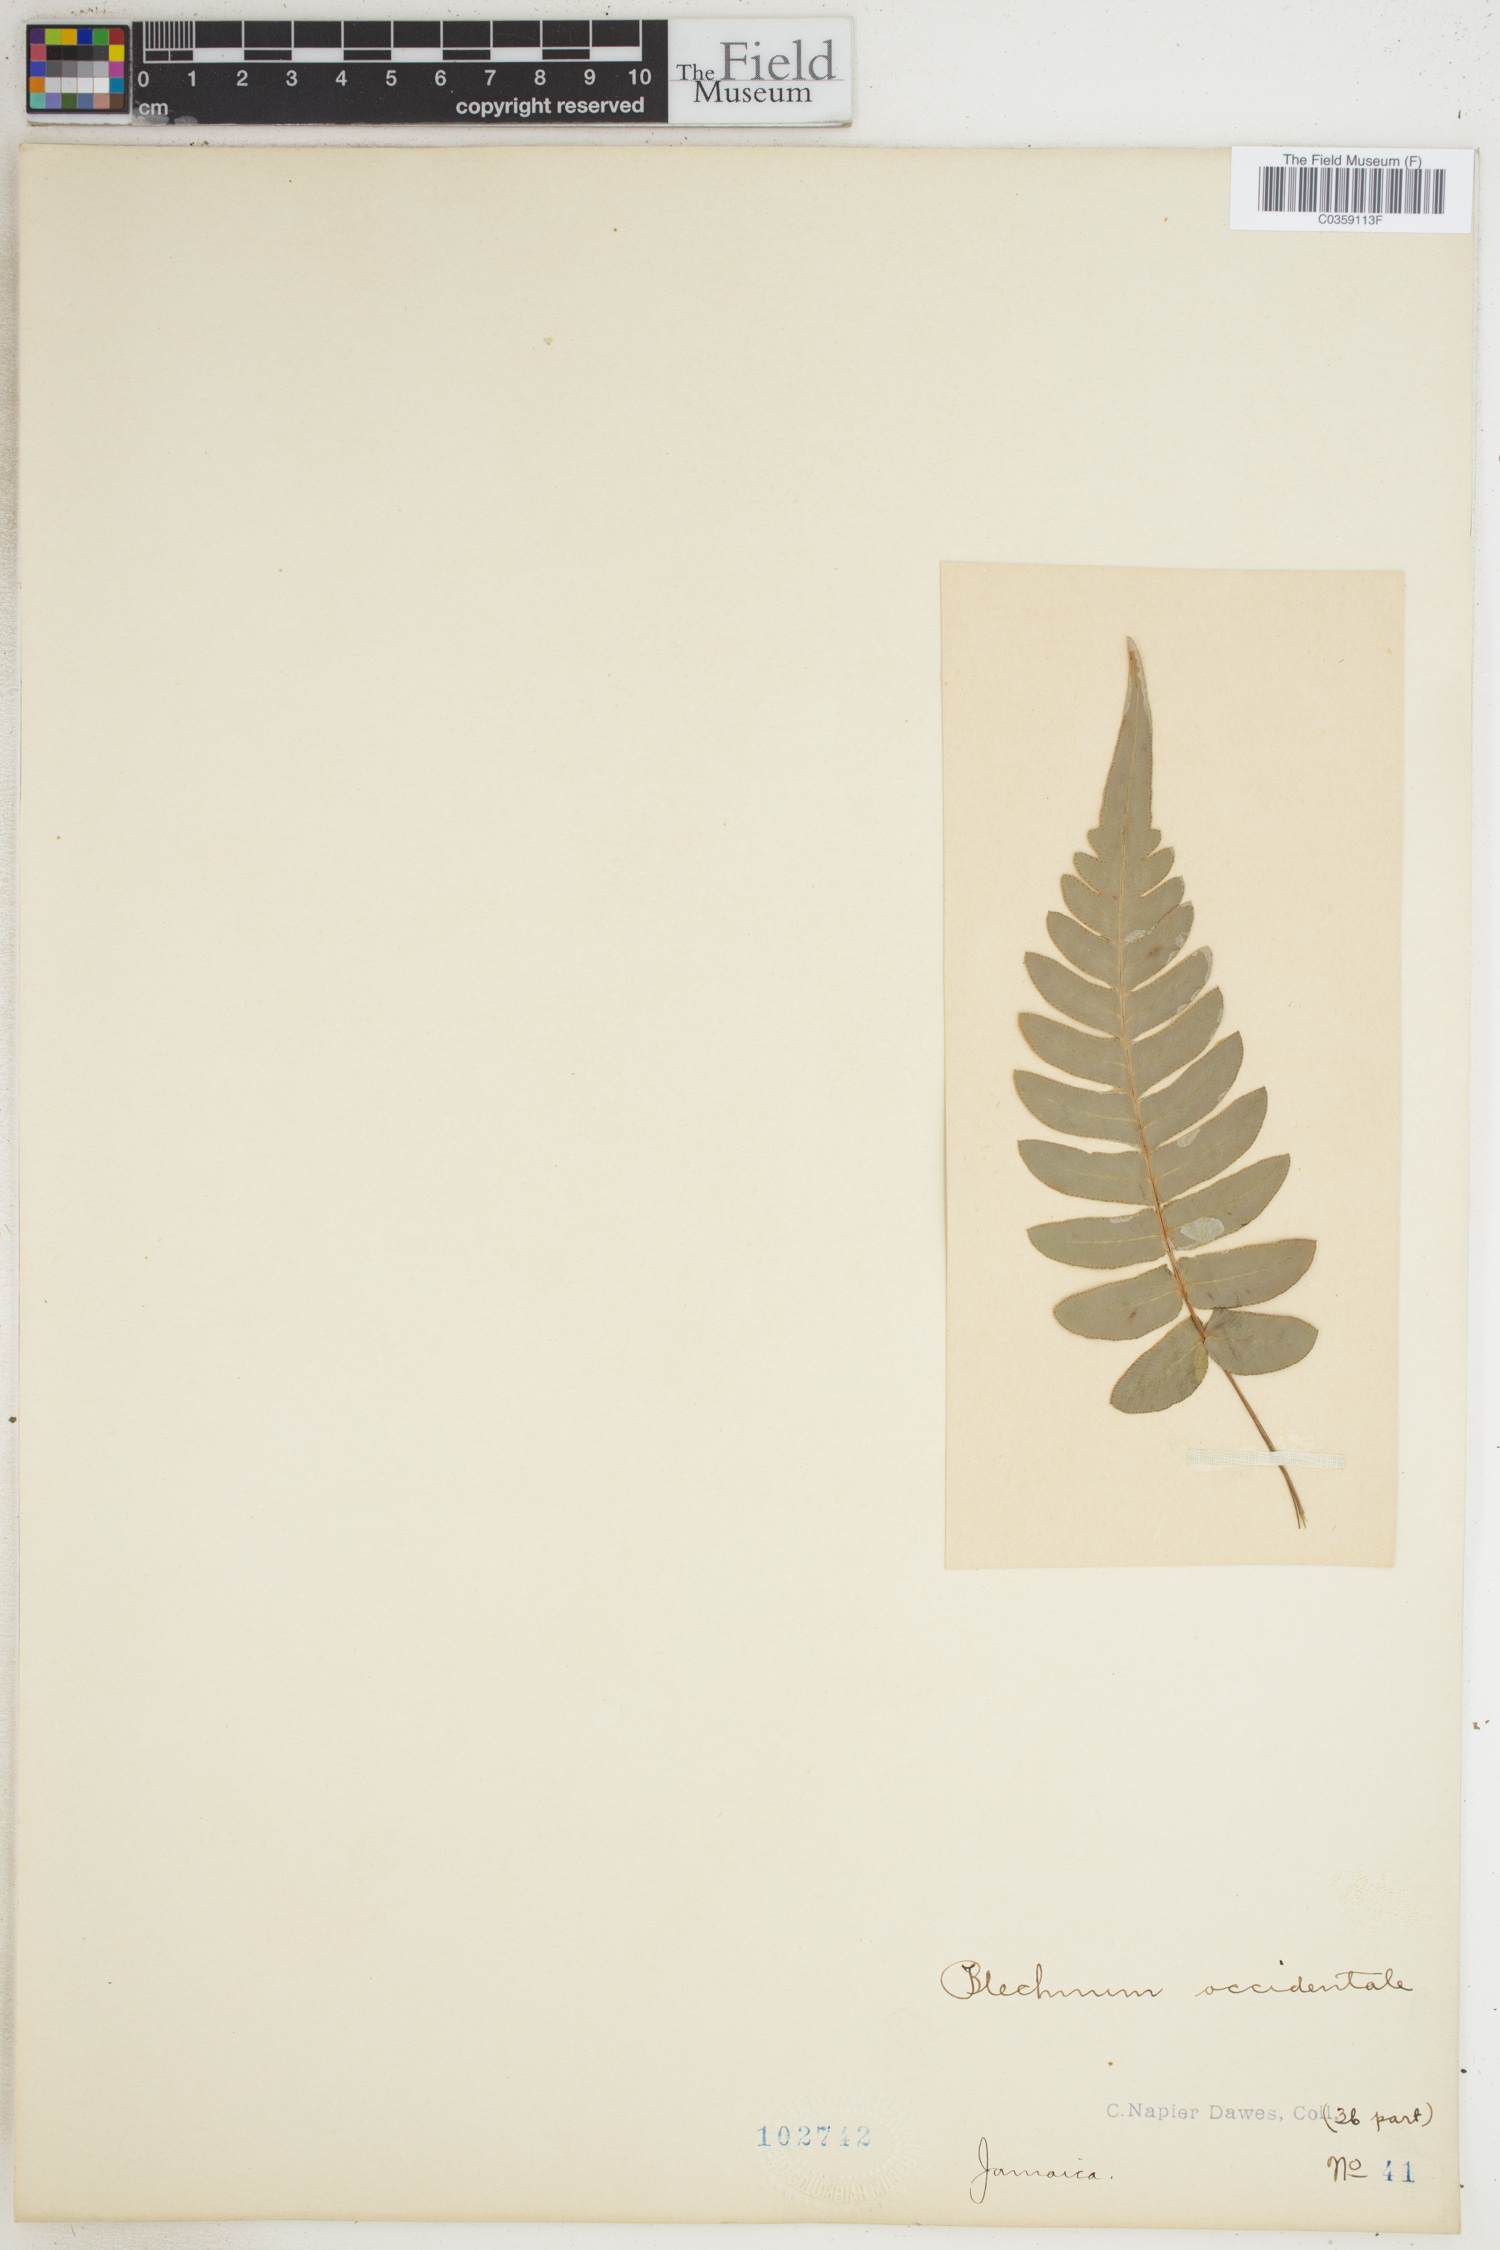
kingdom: Plantae
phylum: Tracheophyta
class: Polypodiopsida
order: Polypodiales
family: Blechnaceae
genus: Blechnum
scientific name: Blechnum occidentale
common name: Hammock fern
